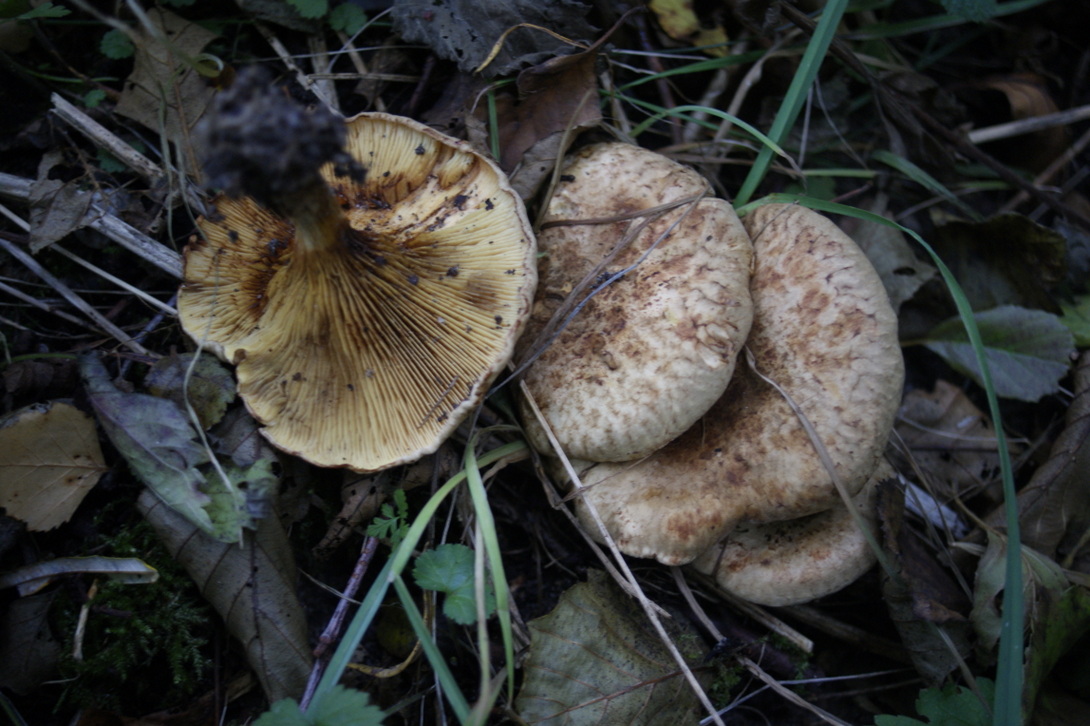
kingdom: Fungi
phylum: Basidiomycota
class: Agaricomycetes
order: Boletales
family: Paxillaceae
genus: Paxillus
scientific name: Paxillus rubicundulus
